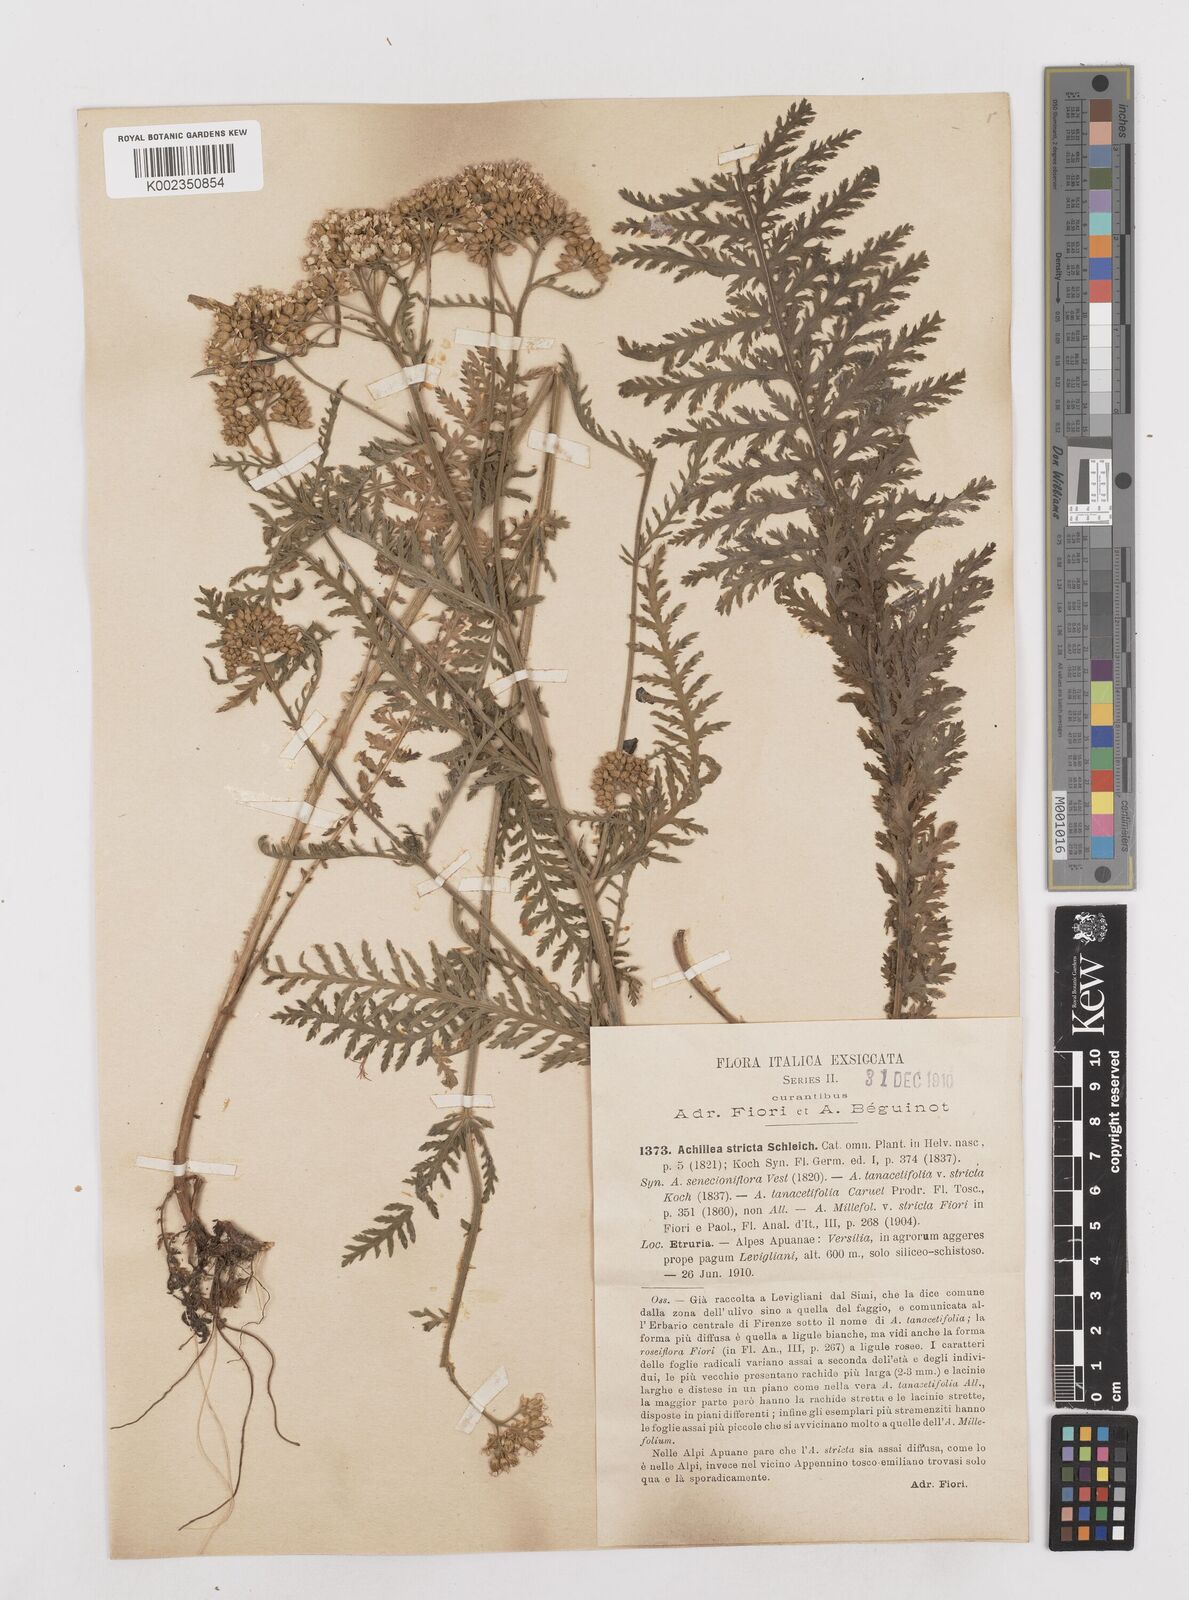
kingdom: Plantae
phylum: Tracheophyta
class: Magnoliopsida
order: Asterales
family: Asteraceae
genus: Achillea
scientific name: Achillea distans
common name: Tall yarrow
